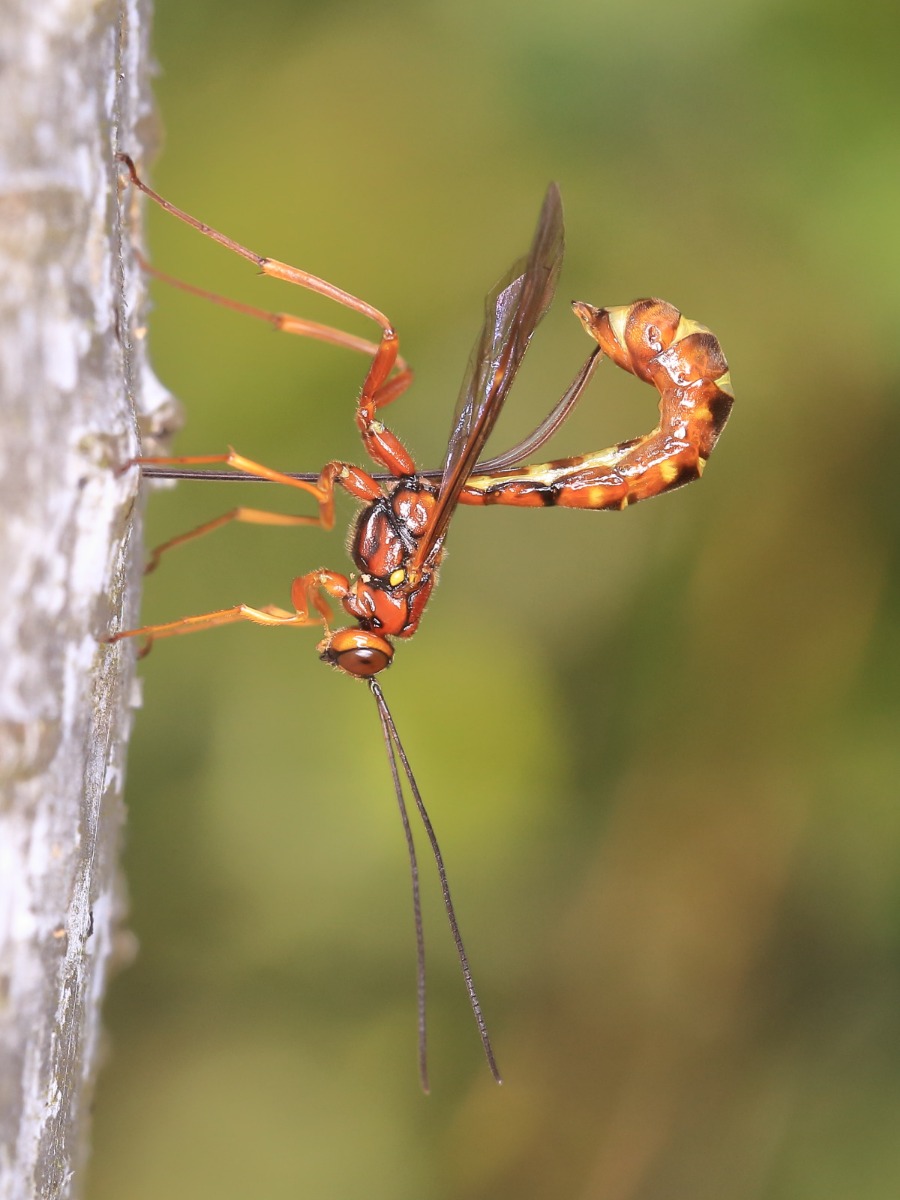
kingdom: Animalia
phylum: Arthropoda
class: Insecta
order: Hymenoptera
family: Ichneumonidae
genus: Megarhyssa
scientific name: Megarhyssa vagatoria
